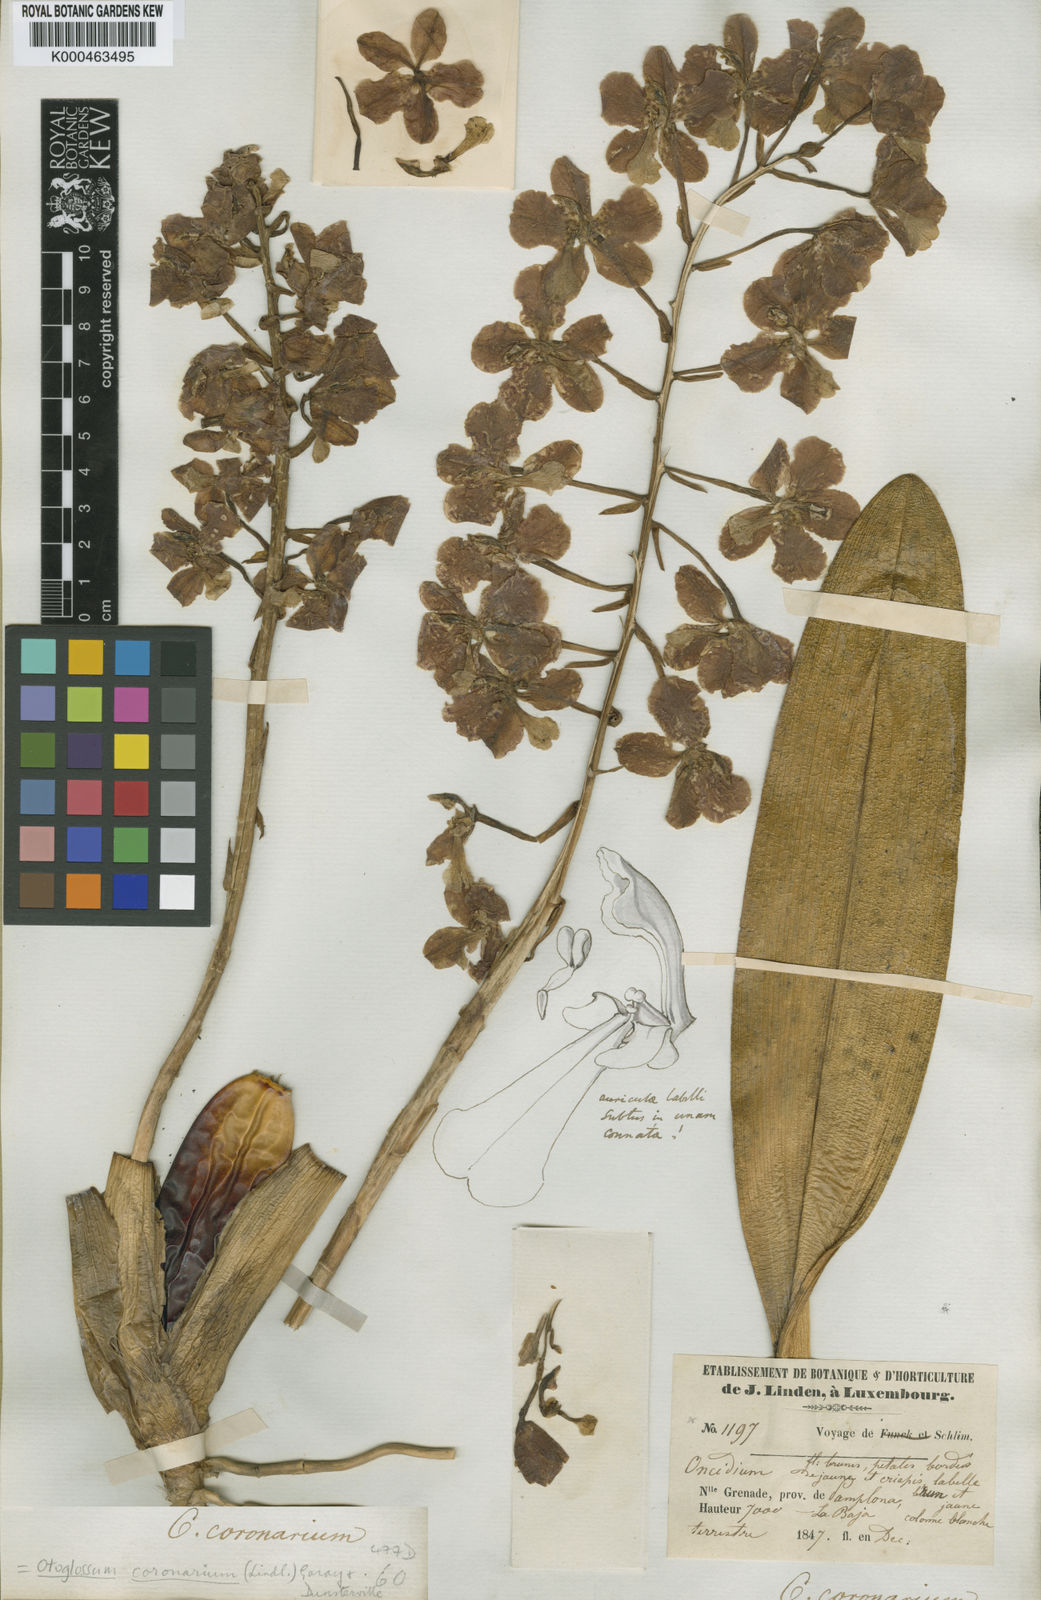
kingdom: Plantae
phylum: Tracheophyta
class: Liliopsida
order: Asparagales
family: Orchidaceae
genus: Otoglossum
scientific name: Otoglossum candelabrum
